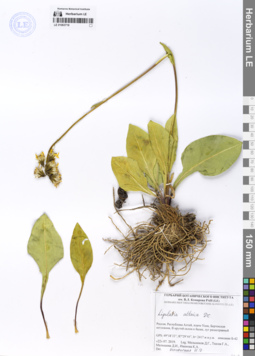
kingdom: Plantae
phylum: Tracheophyta
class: Magnoliopsida
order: Asterales
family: Asteraceae
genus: Ligularia
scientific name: Ligularia altaica
